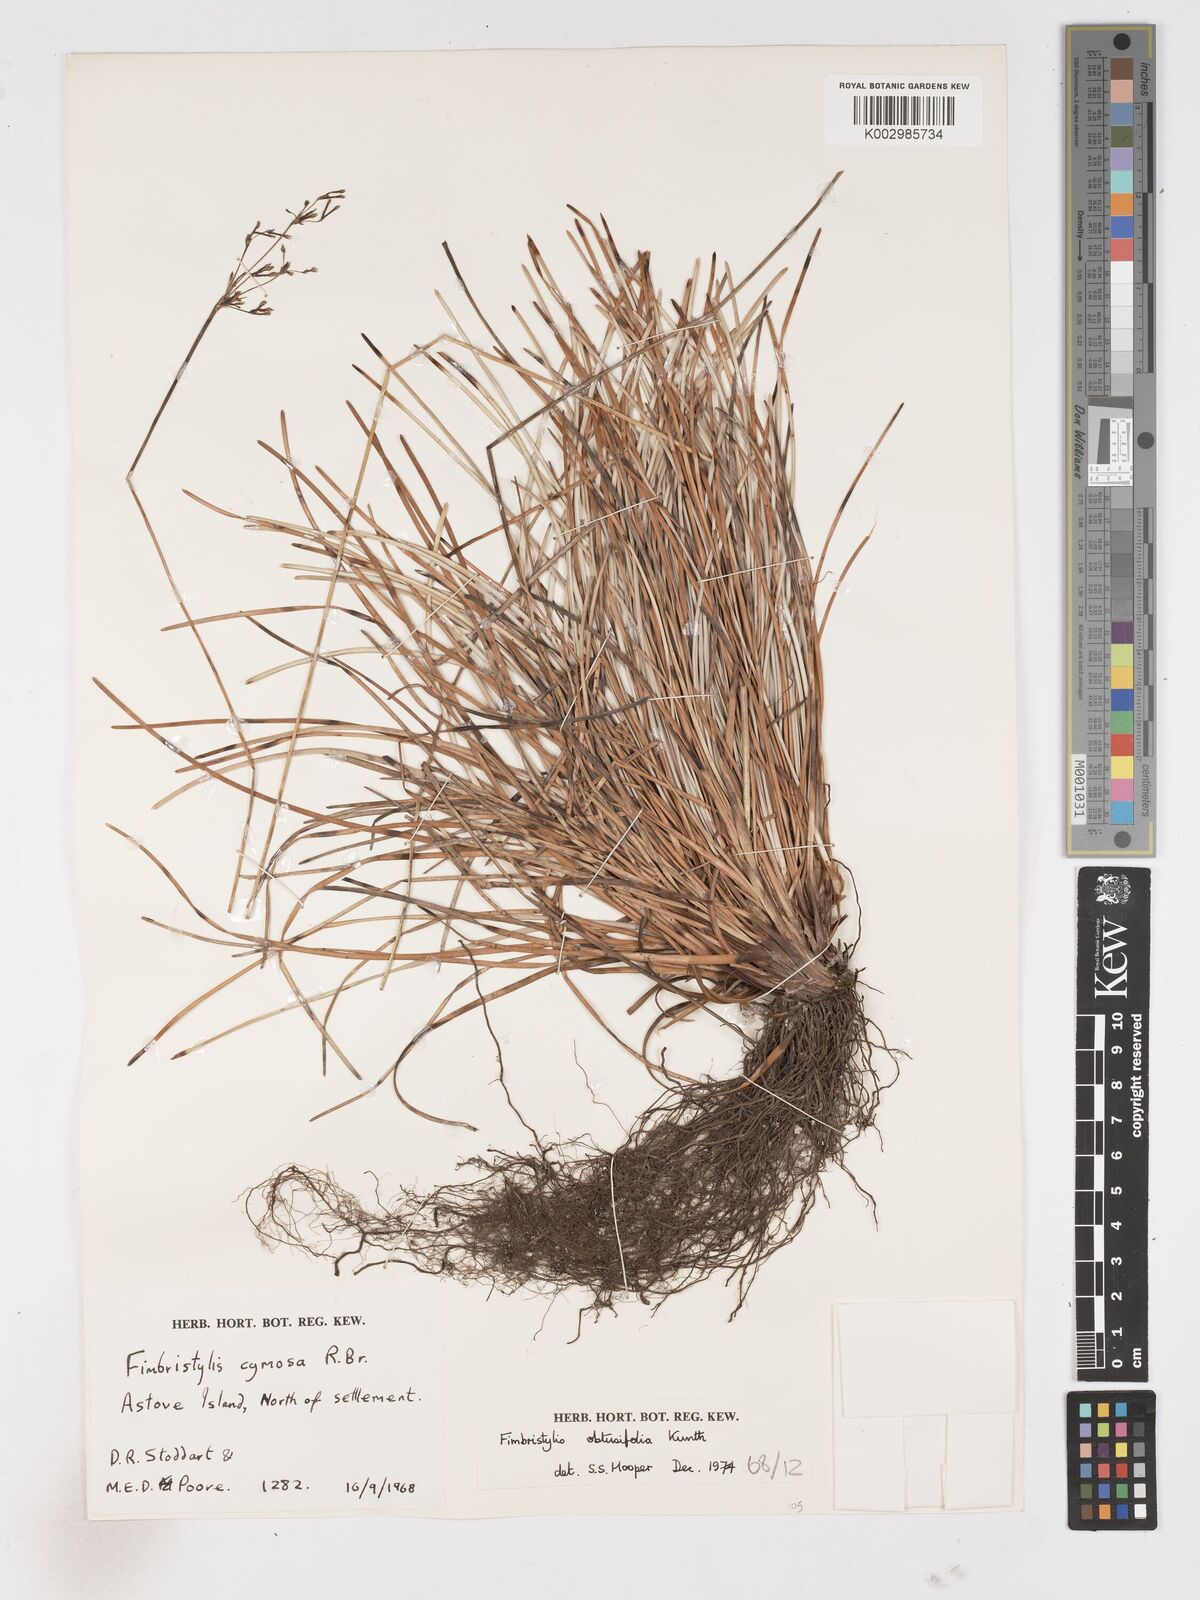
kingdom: Plantae
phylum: Tracheophyta
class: Liliopsida
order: Poales
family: Cyperaceae
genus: Fimbristylis
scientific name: Fimbristylis cymosa
